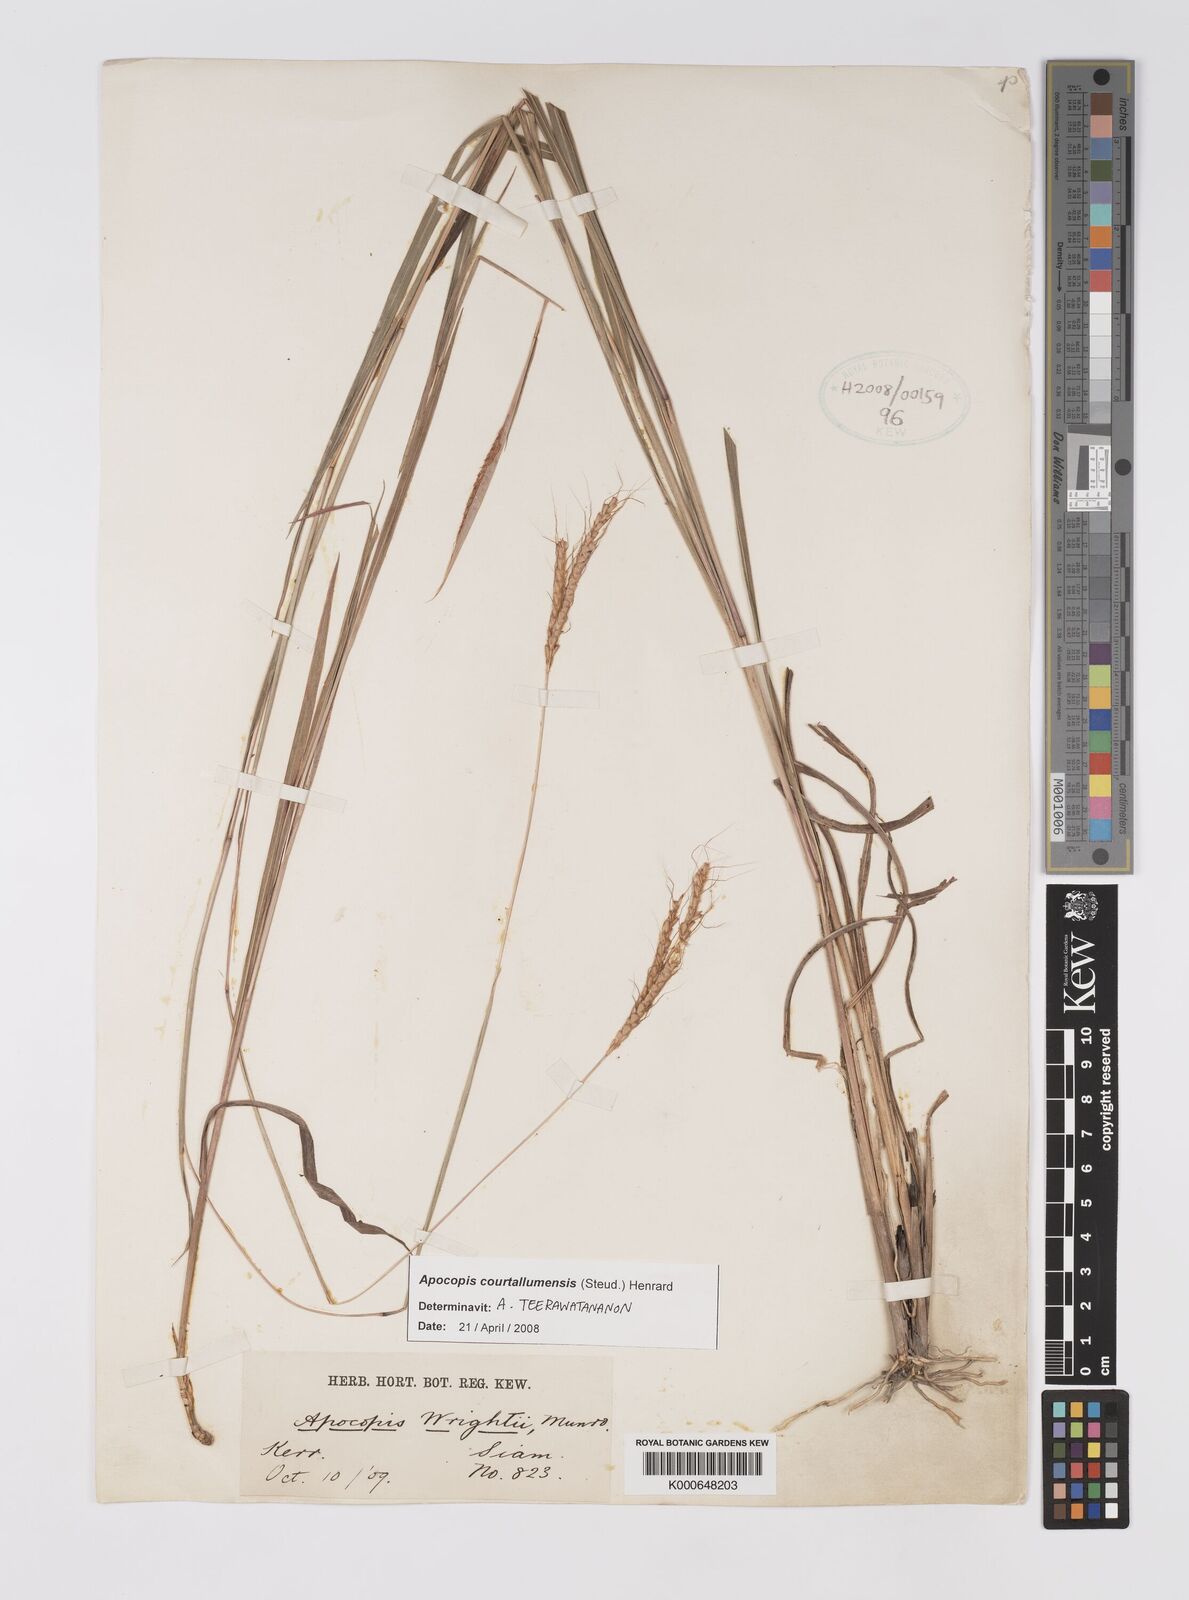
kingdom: Plantae
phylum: Tracheophyta
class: Liliopsida
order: Poales
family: Poaceae
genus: Apocopis
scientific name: Apocopis courtallumensis
